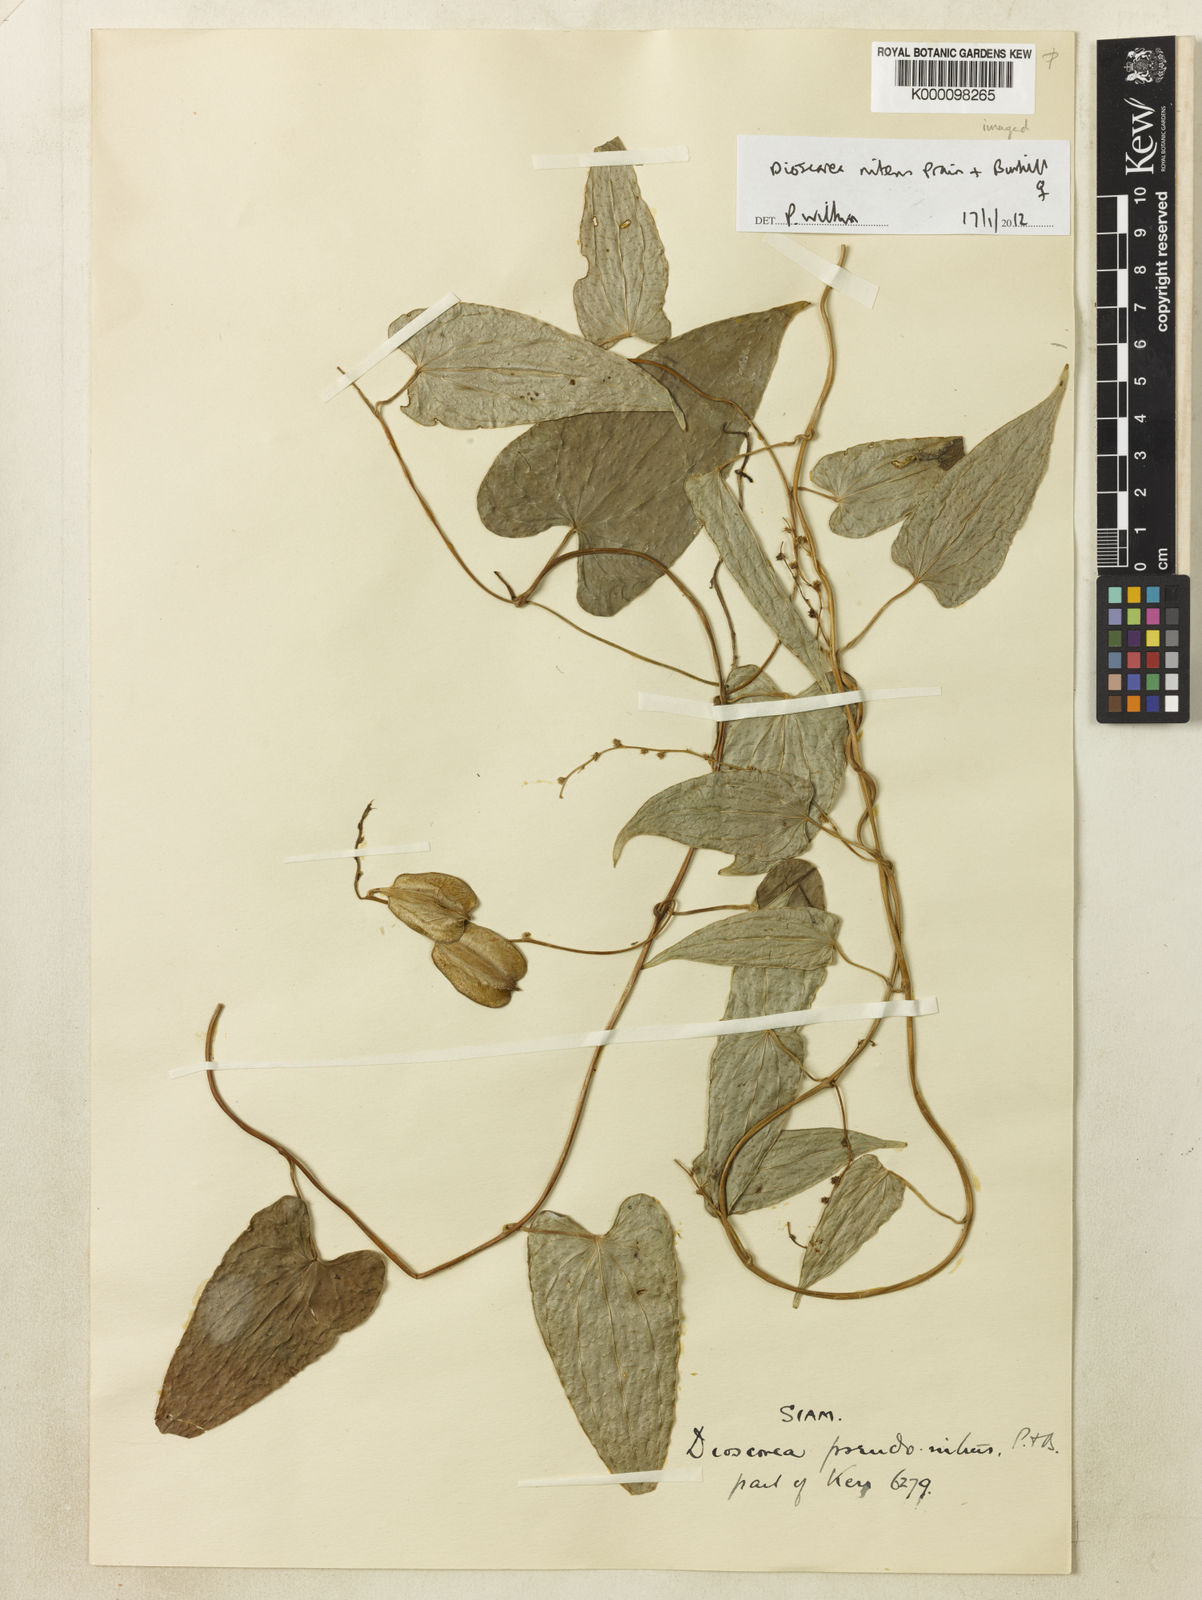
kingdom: Plantae
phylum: Tracheophyta
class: Liliopsida
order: Dioscoreales
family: Dioscoreaceae
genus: Dioscorea
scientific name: Dioscorea nitens
